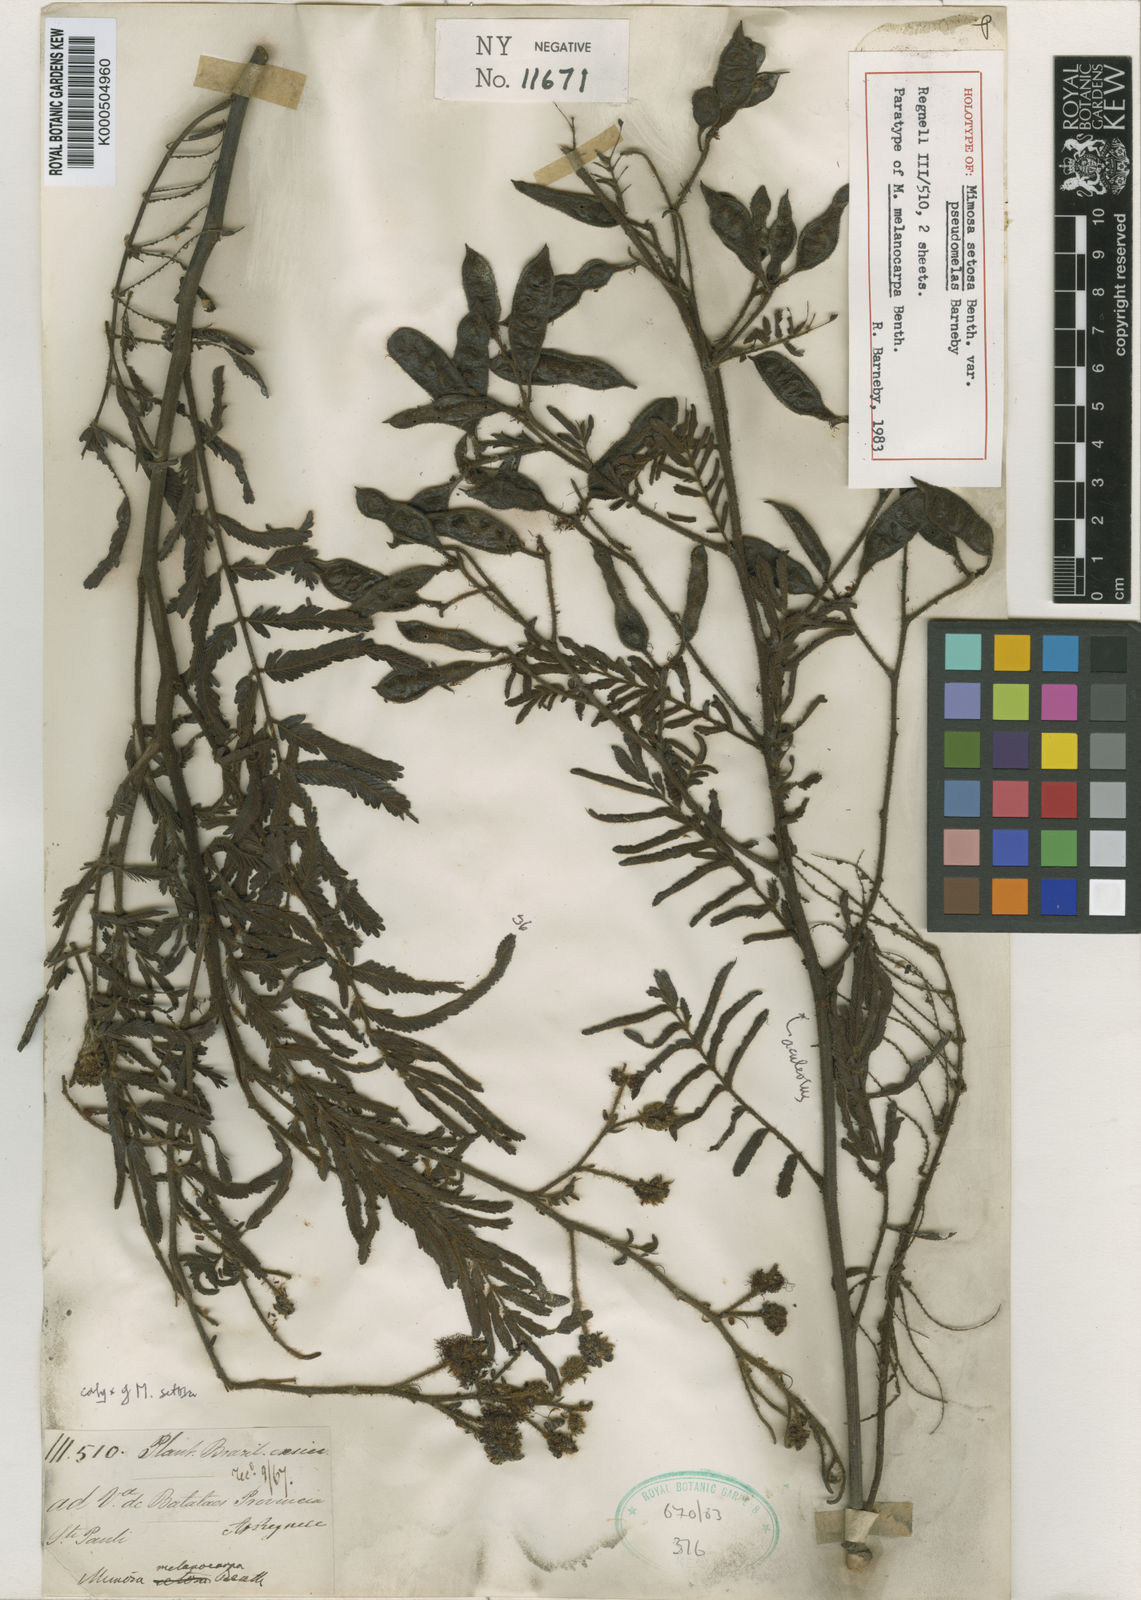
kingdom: Plantae
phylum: Tracheophyta
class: Magnoliopsida
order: Fabales
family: Fabaceae
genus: Mimosa
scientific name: Mimosa setosa
